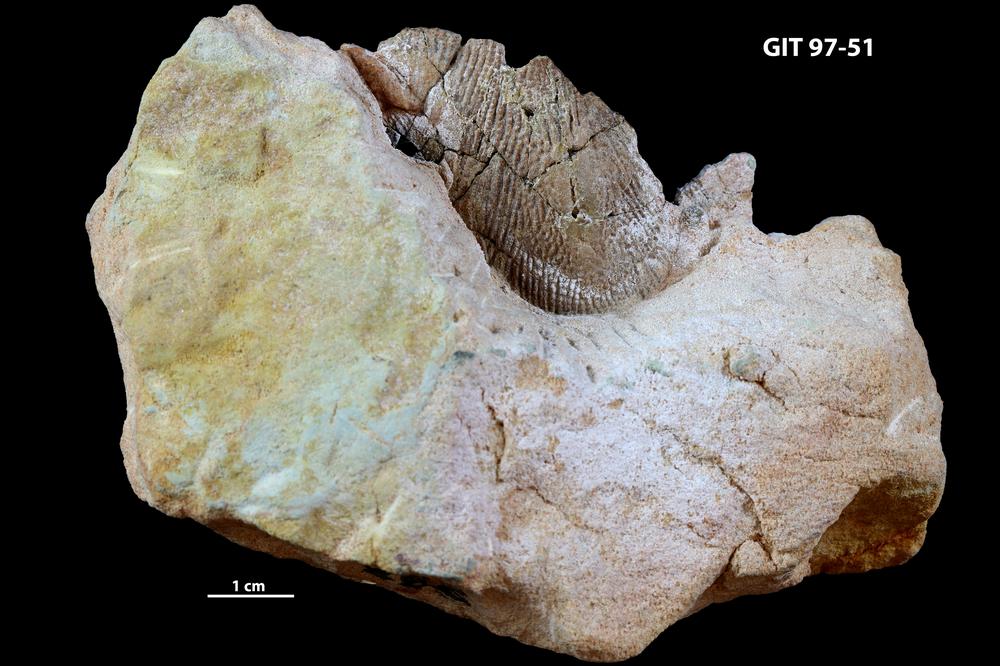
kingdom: Animalia
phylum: Chordata
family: Holonematidae
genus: Holonema
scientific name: Holonema
